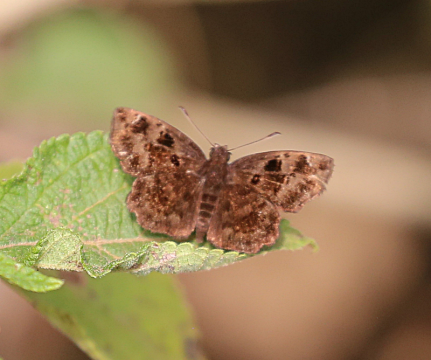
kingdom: Animalia
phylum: Arthropoda
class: Insecta
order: Lepidoptera
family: Hesperiidae
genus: Eretis
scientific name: Eretis lugens
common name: Savanna Elf
